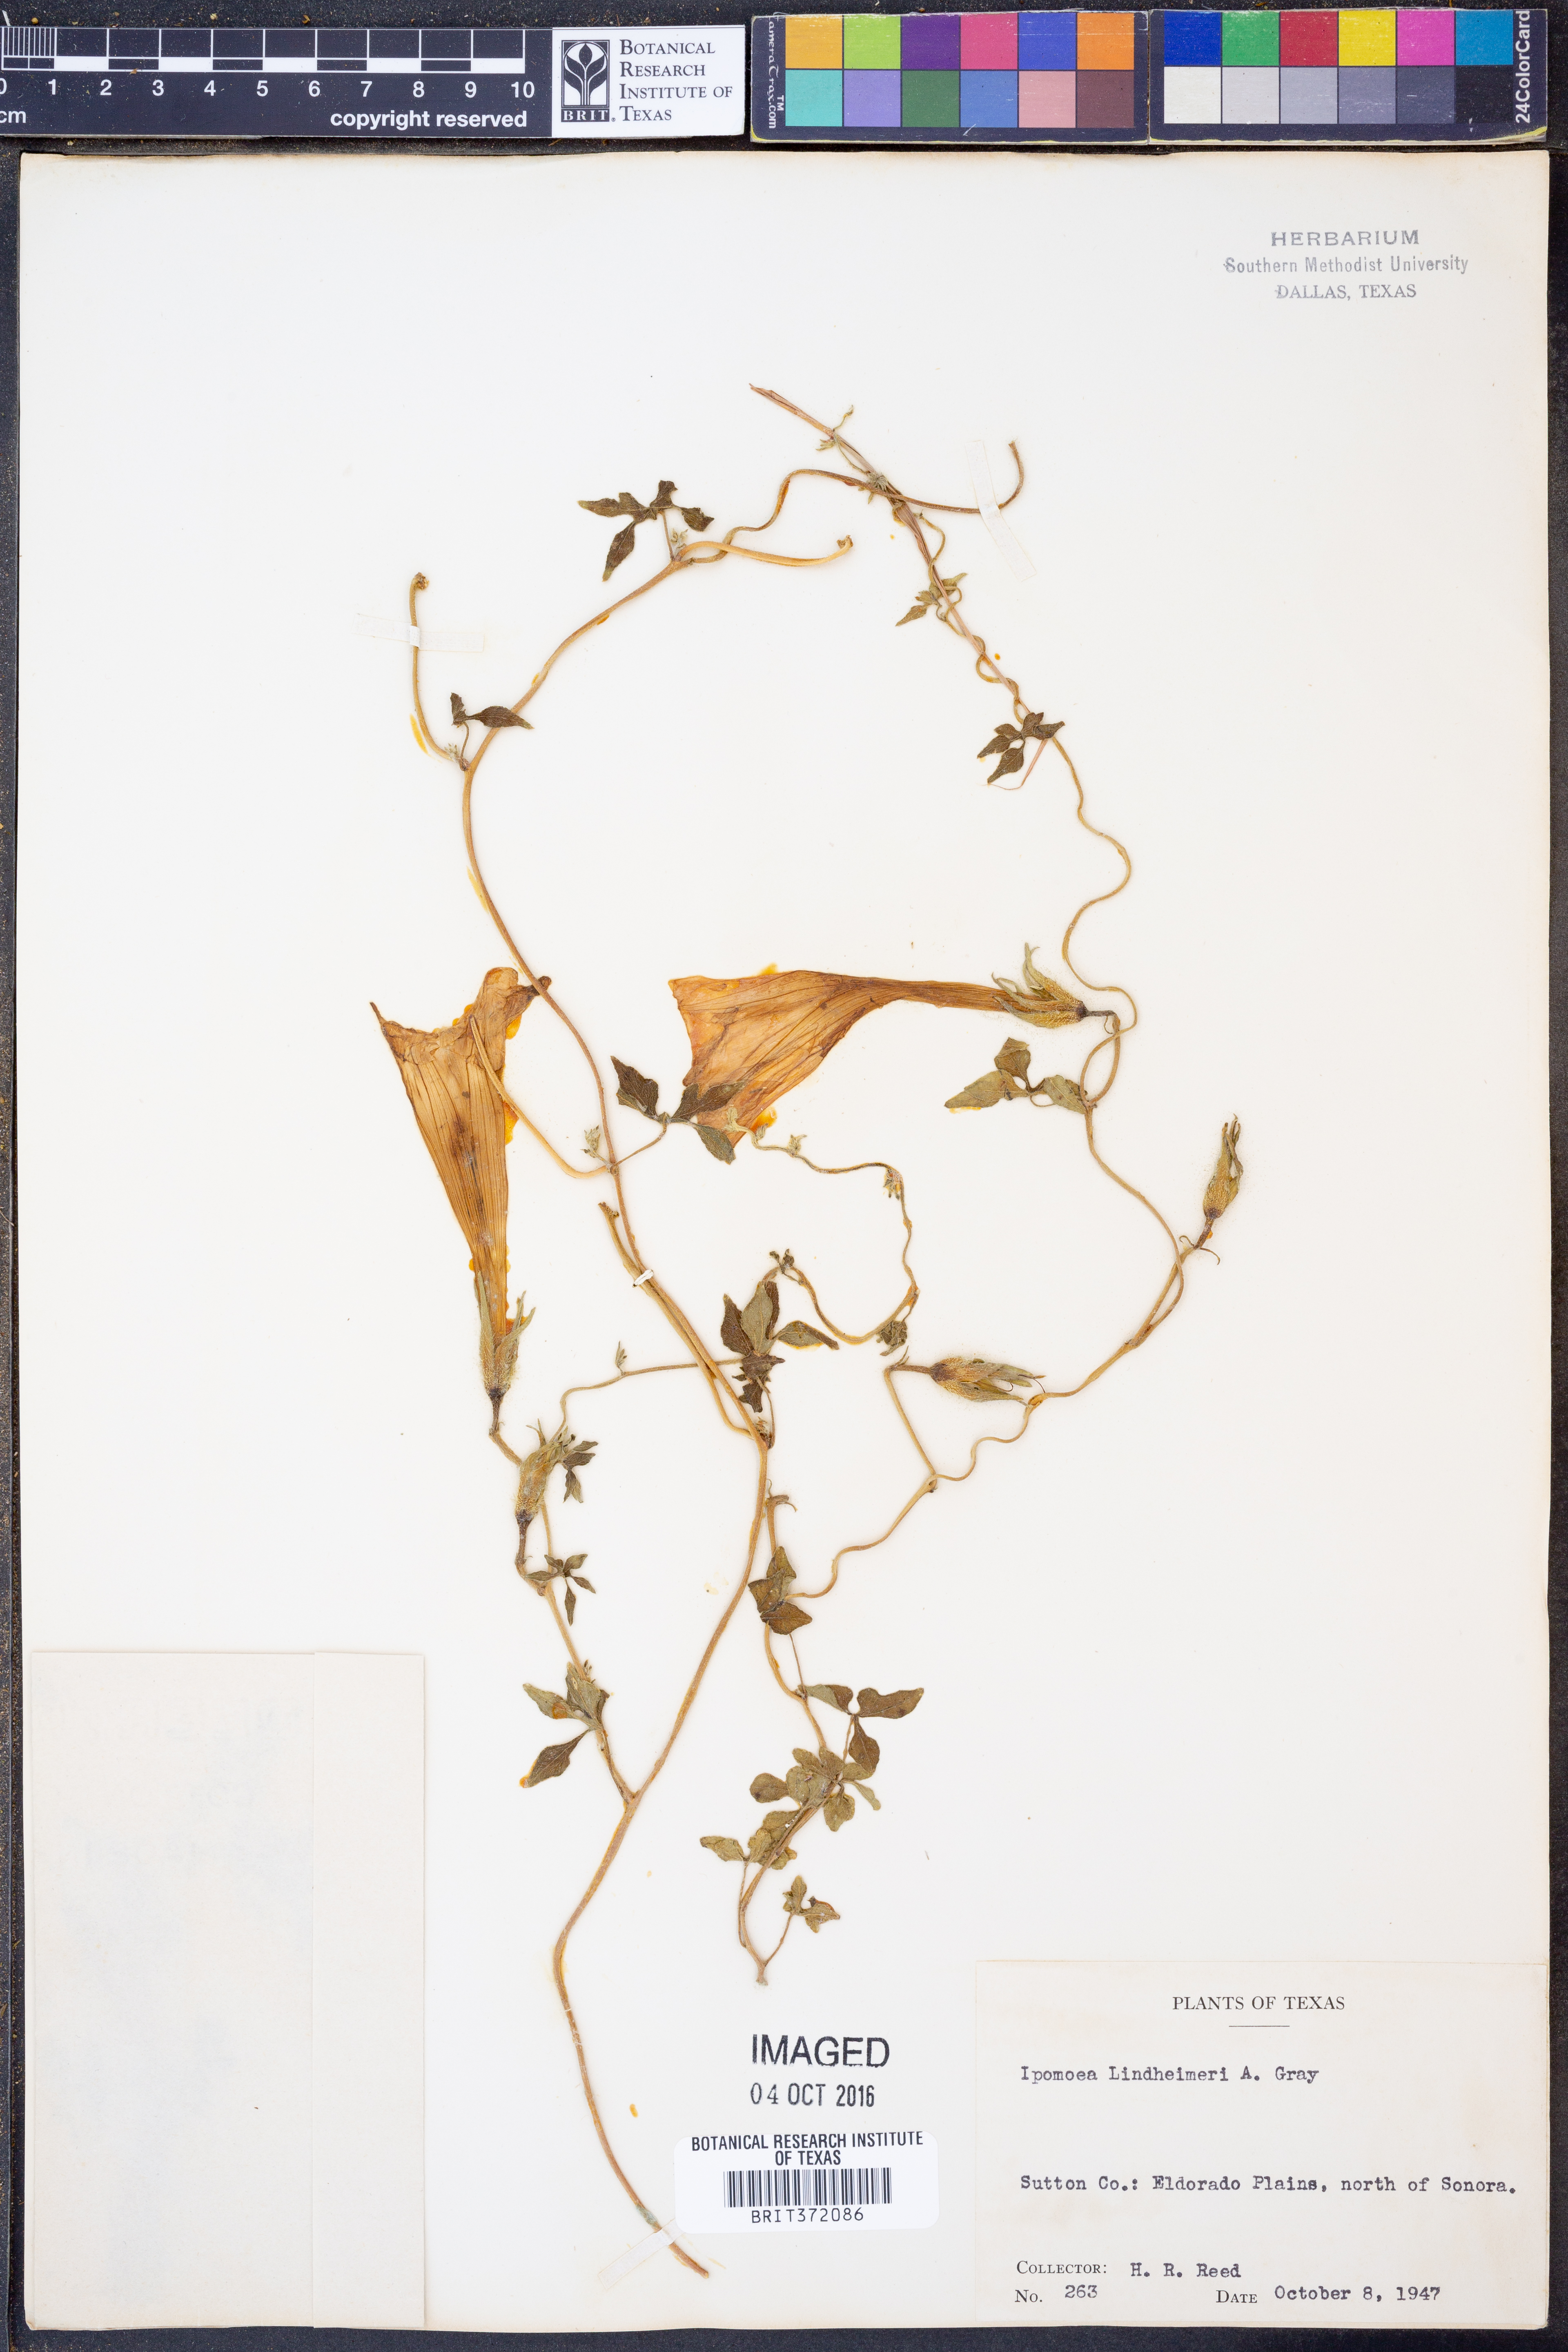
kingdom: Plantae
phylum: Tracheophyta
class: Magnoliopsida
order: Solanales
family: Convolvulaceae
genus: Ipomoea
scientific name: Ipomoea lindheimeri
